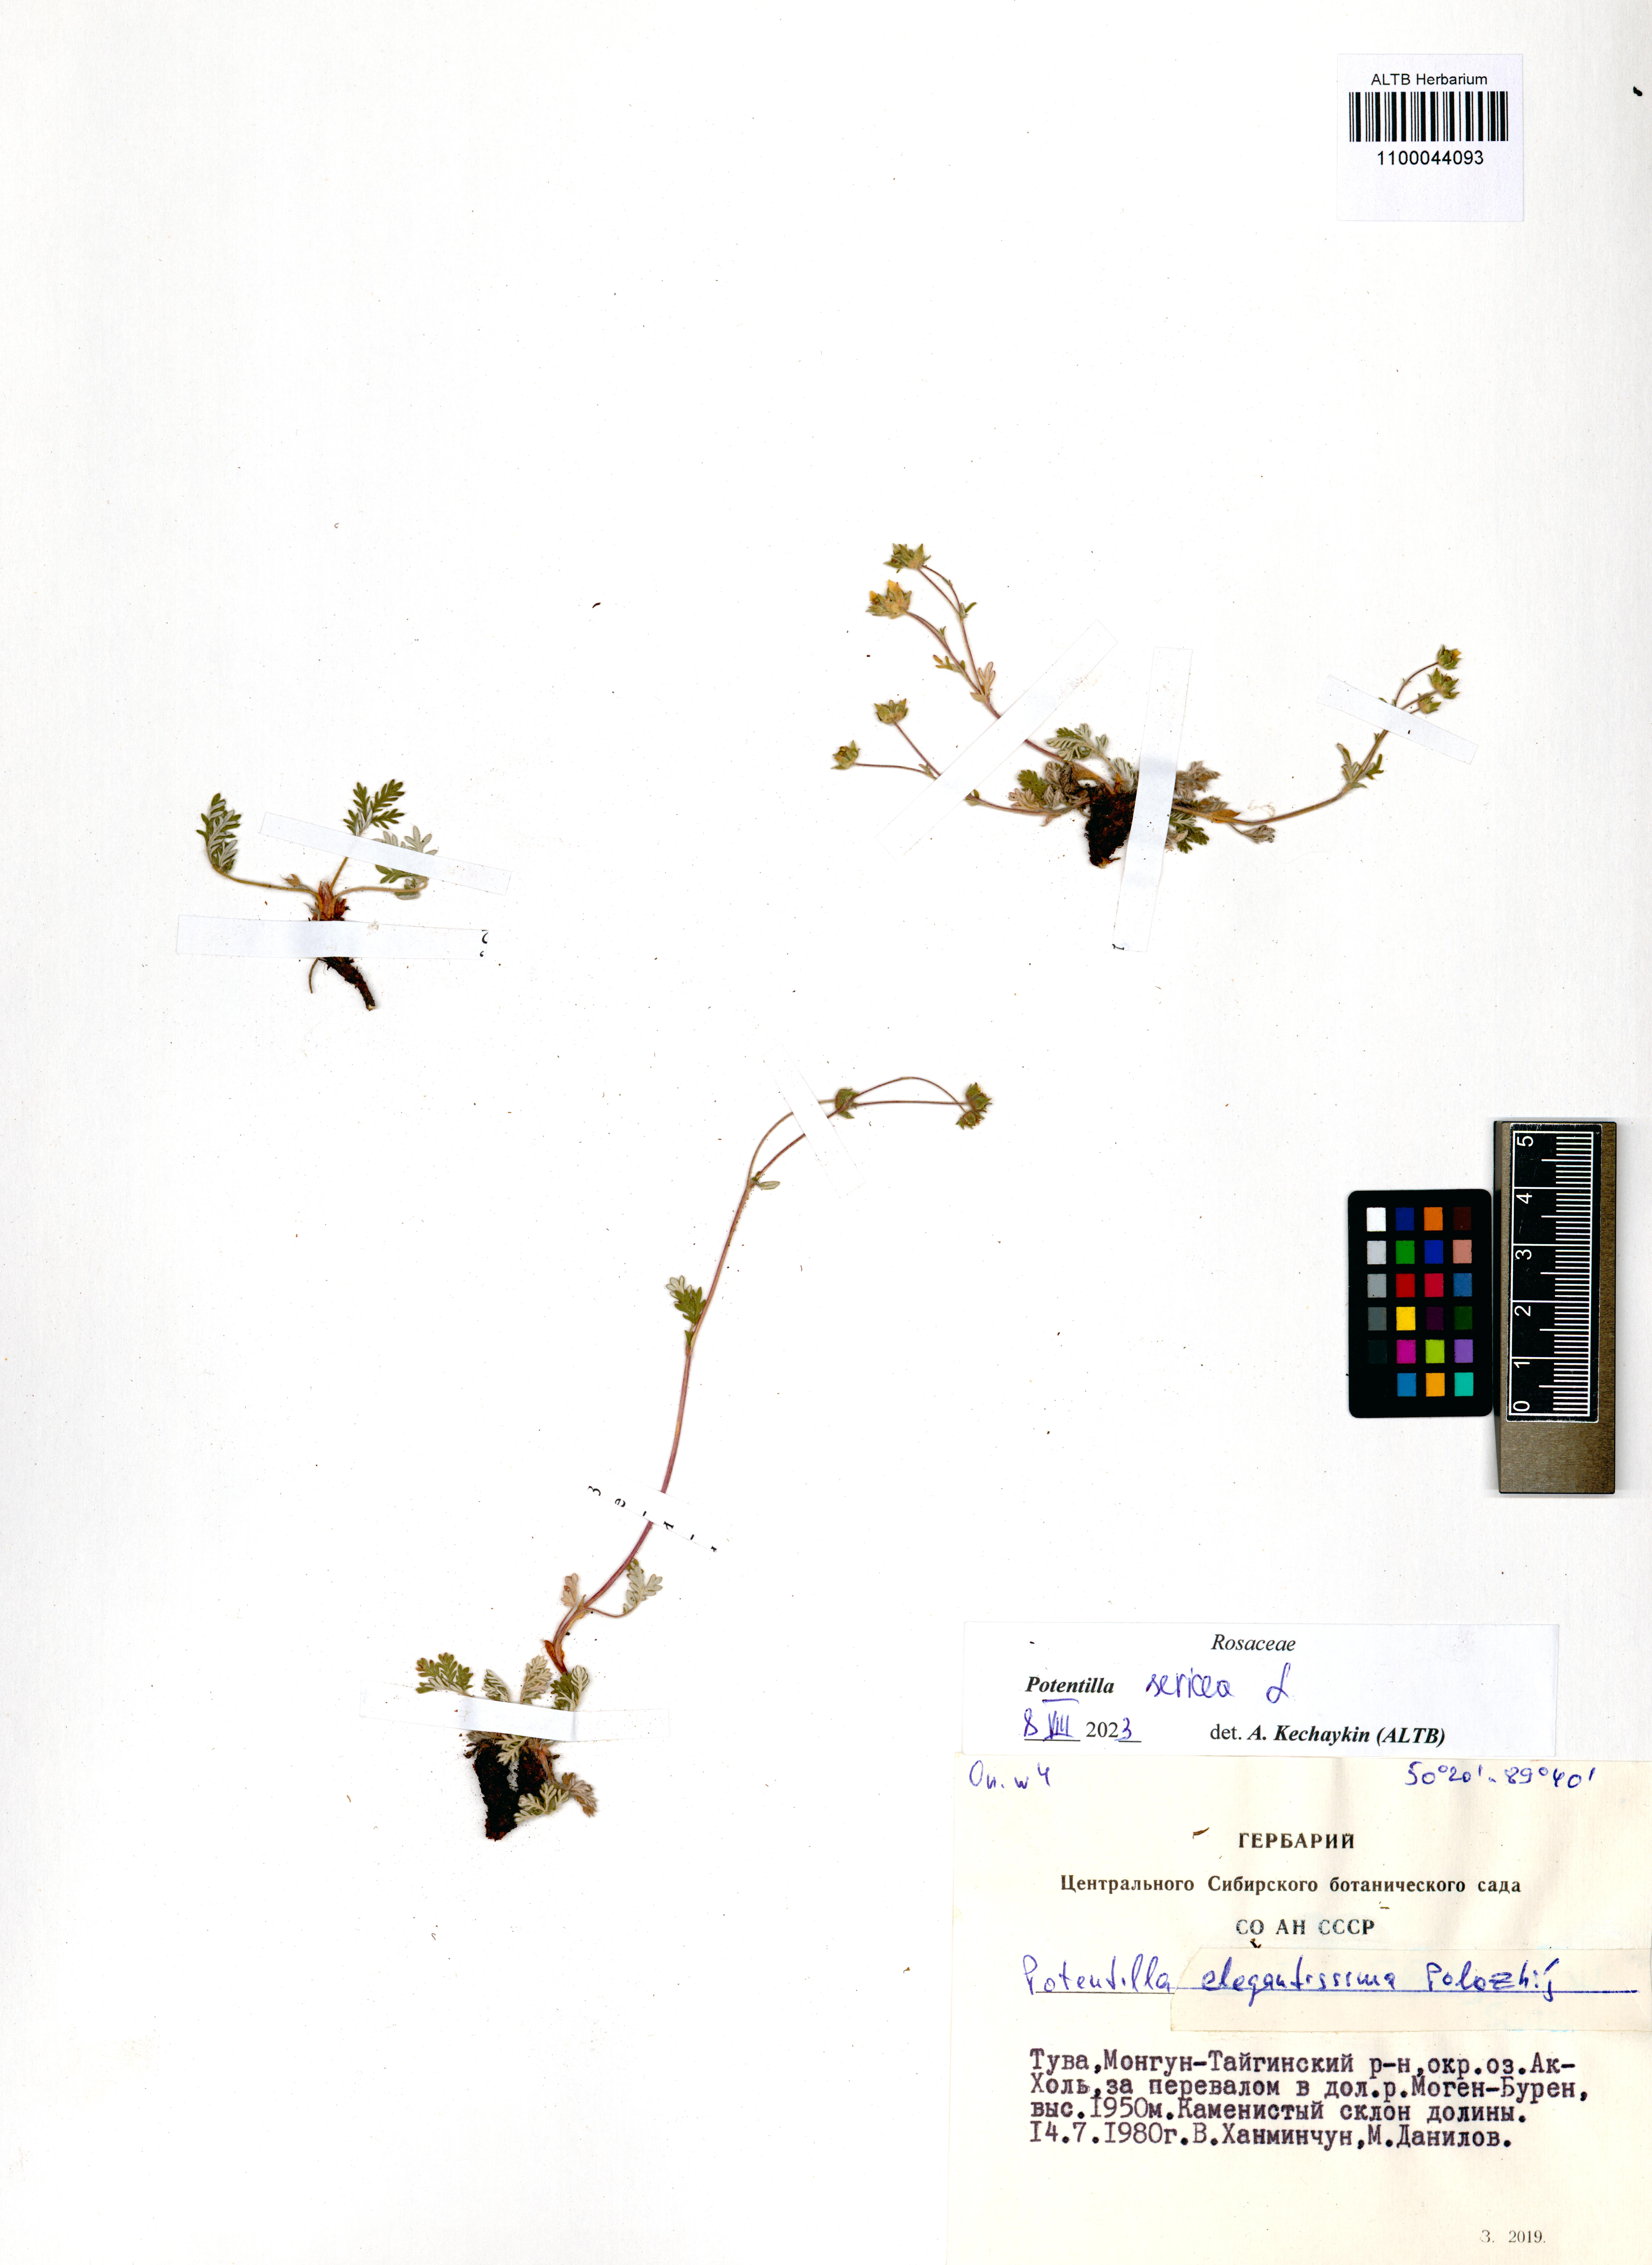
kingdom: Plantae
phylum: Tracheophyta
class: Magnoliopsida
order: Rosales
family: Rosaceae
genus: Potentilla
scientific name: Potentilla sericea
